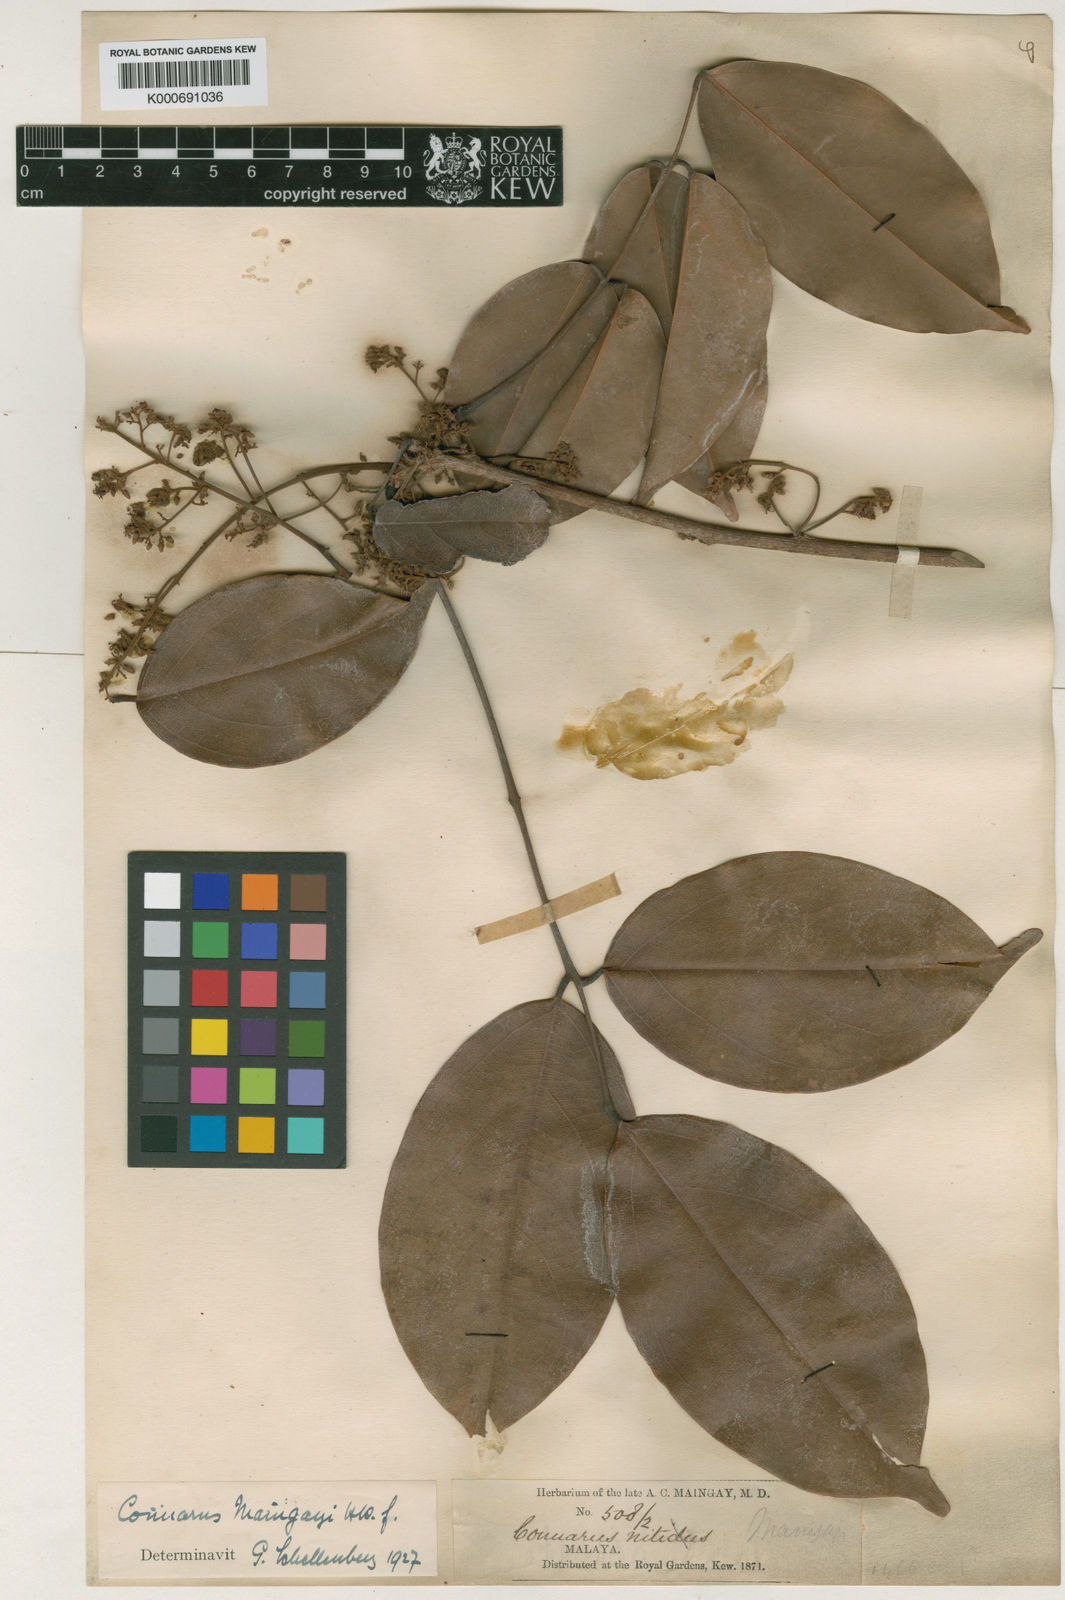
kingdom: Plantae
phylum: Tracheophyta
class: Magnoliopsida
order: Oxalidales
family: Connaraceae
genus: Connarus
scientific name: Connarus semidecandrus
